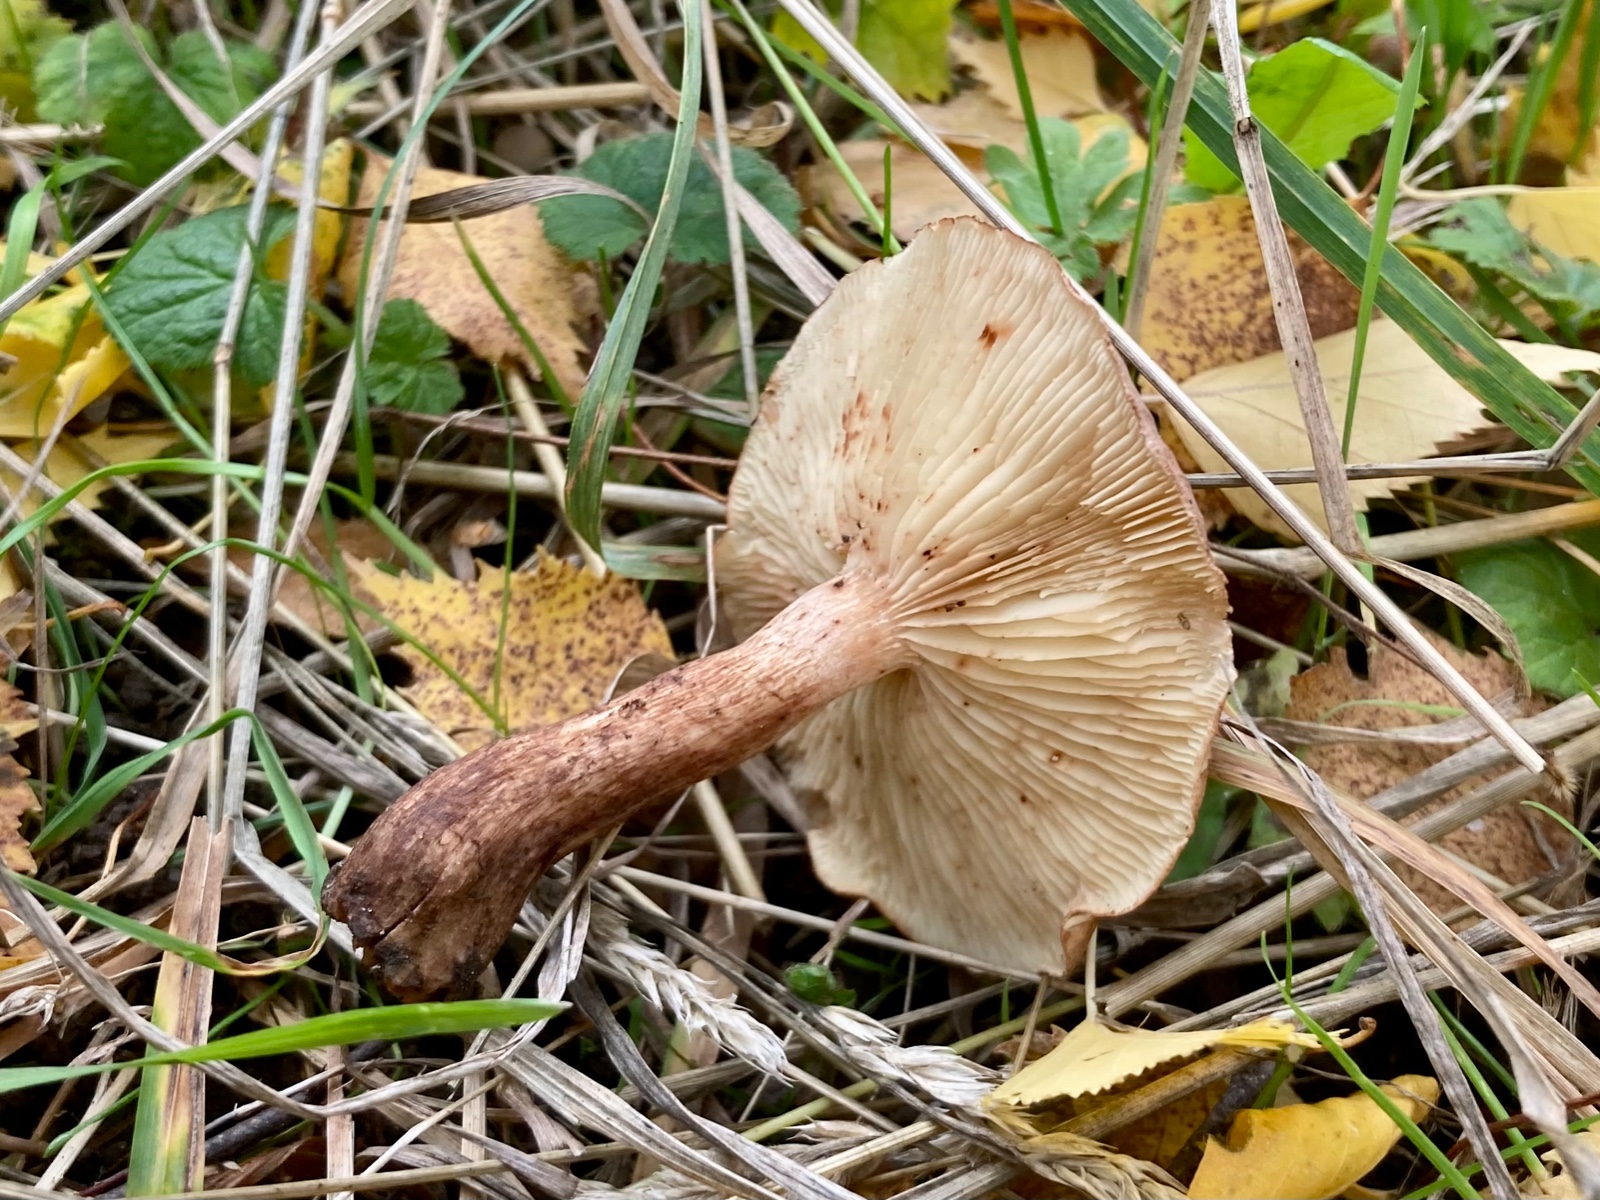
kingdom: Fungi
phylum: Basidiomycota
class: Agaricomycetes
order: Agaricales
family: Tricholomataceae
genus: Tricholoma
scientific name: Tricholoma fulvum
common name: birke-ridderhat
